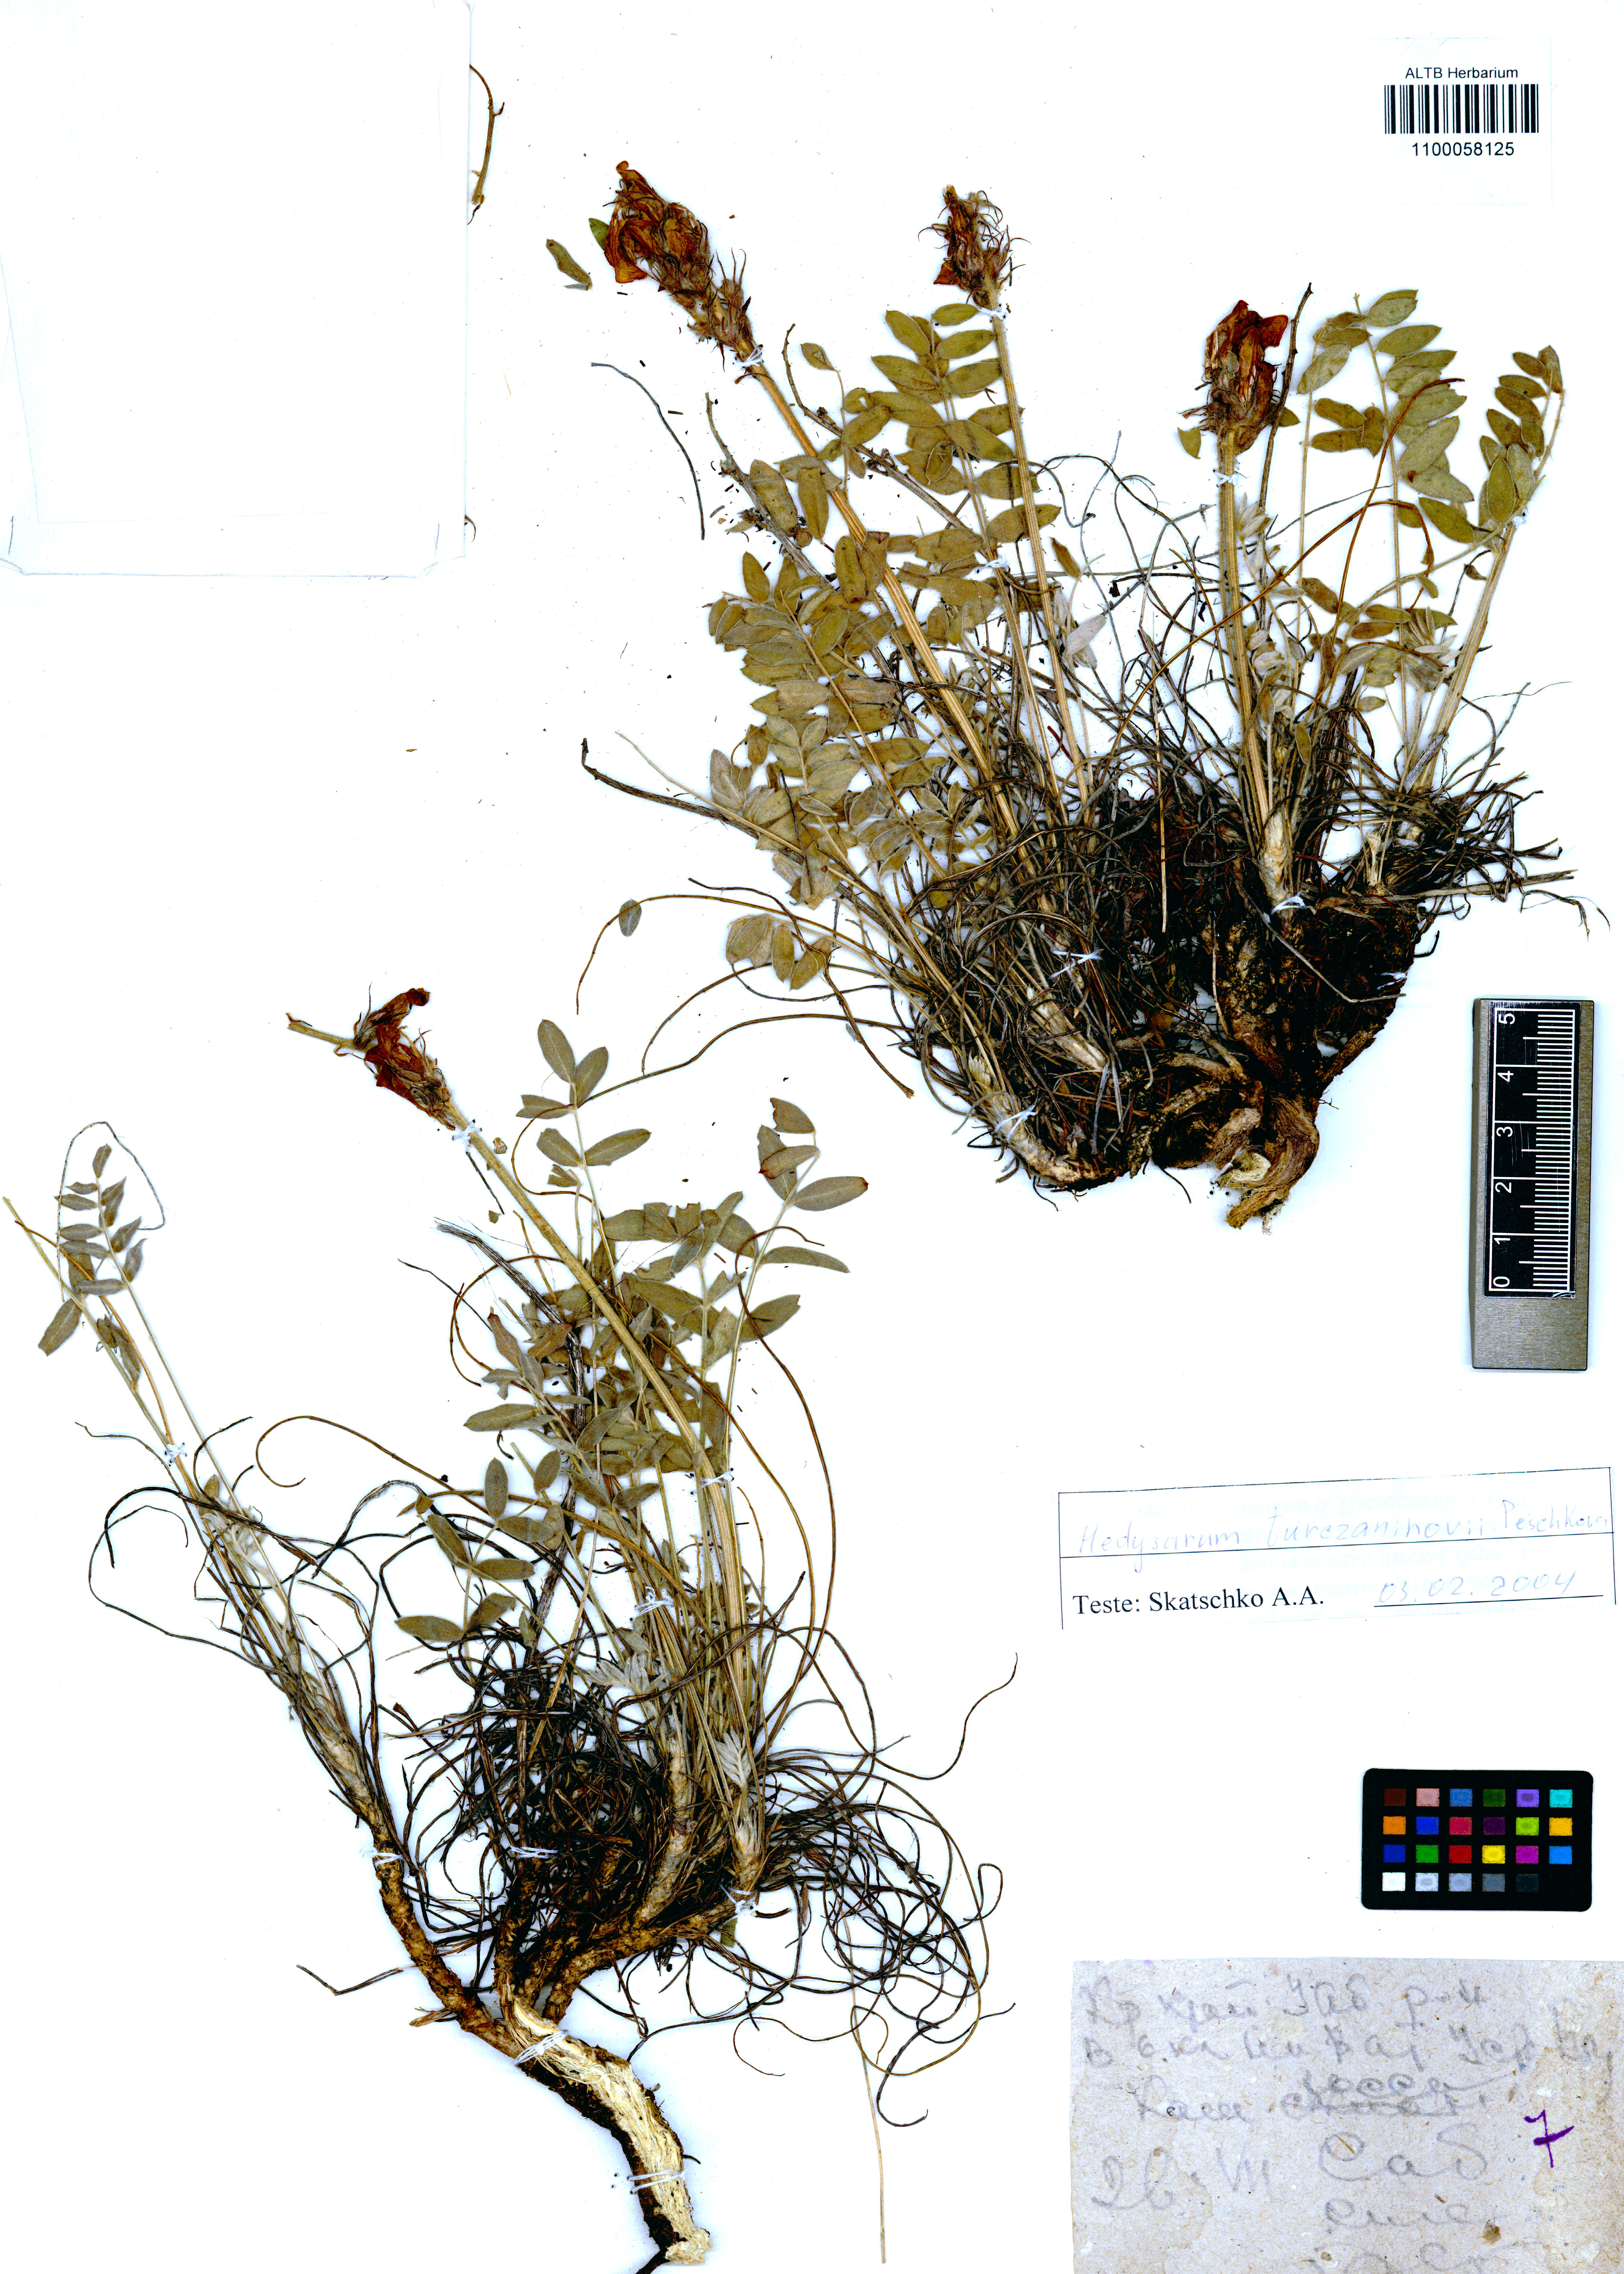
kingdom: Plantae
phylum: Tracheophyta
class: Magnoliopsida
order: Fabales
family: Fabaceae
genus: Hedysarum
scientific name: Hedysarum turczaninovii
